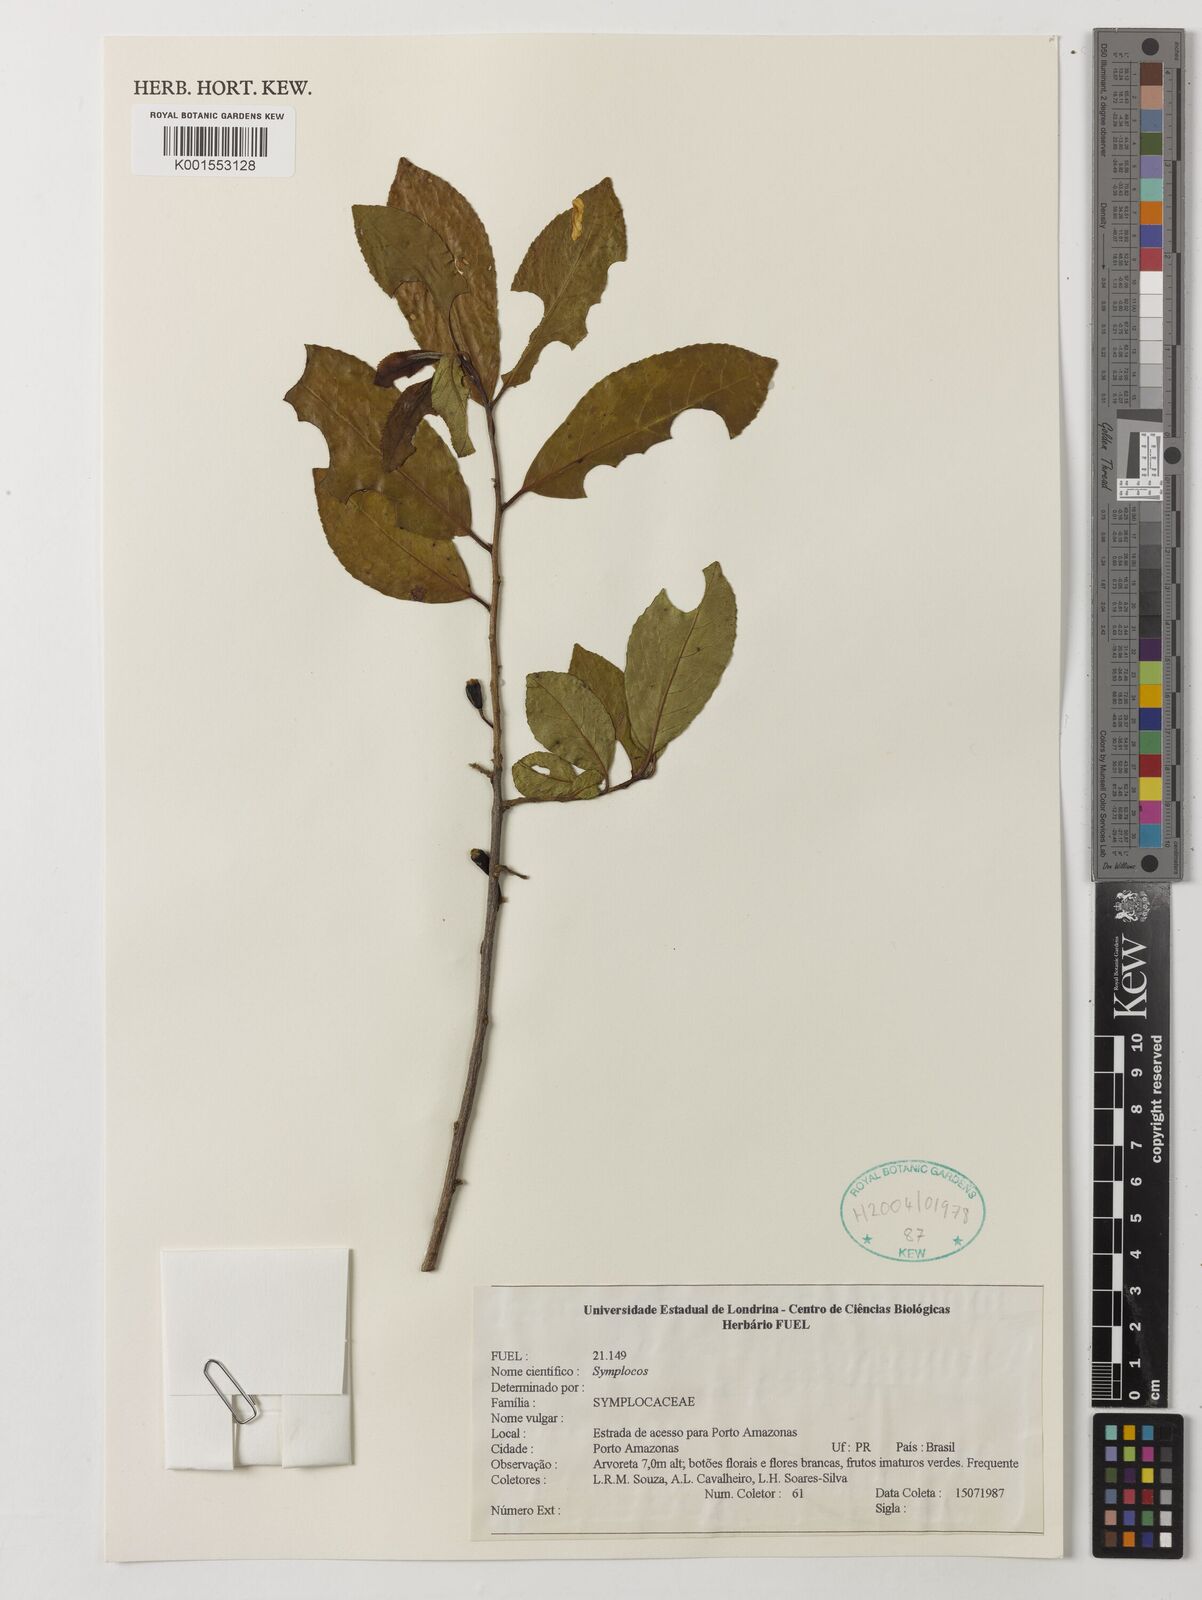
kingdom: Plantae
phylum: Tracheophyta
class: Magnoliopsida
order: Ericales
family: Symplocaceae
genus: Symplocos
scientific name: Symplocos
